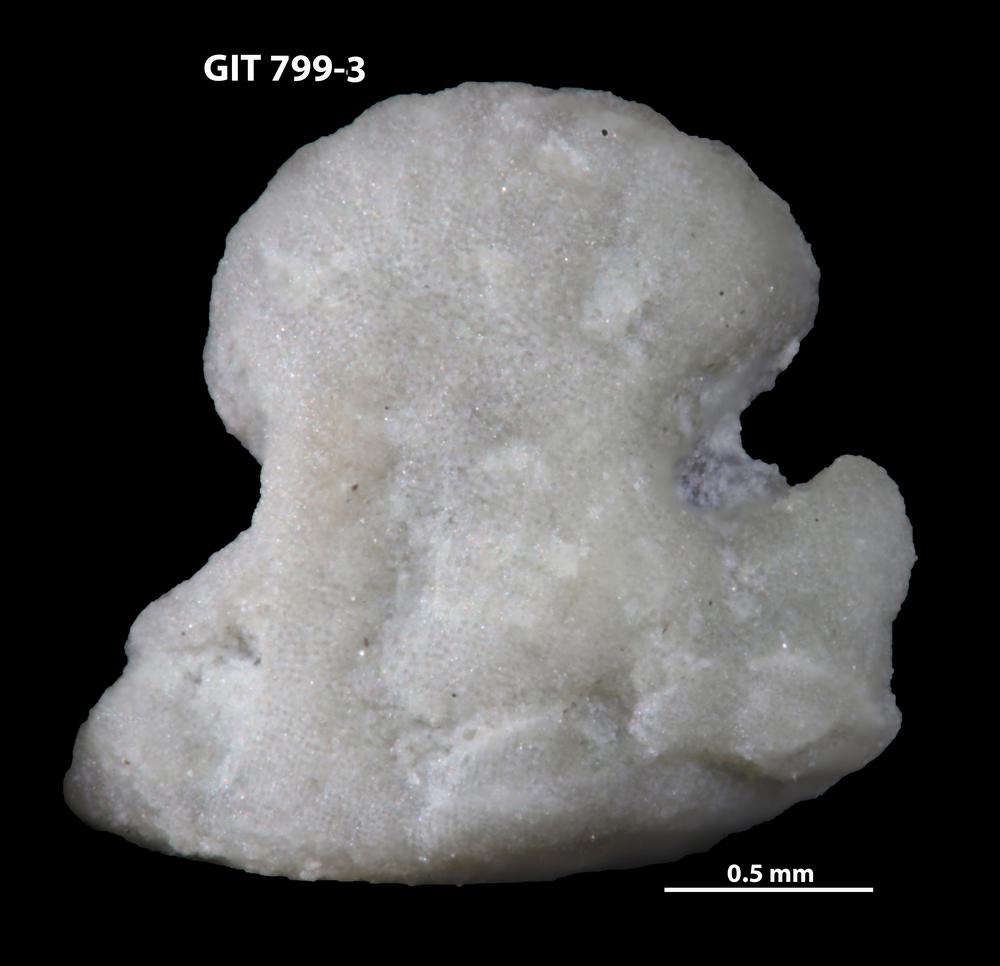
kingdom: Animalia
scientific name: Animalia
